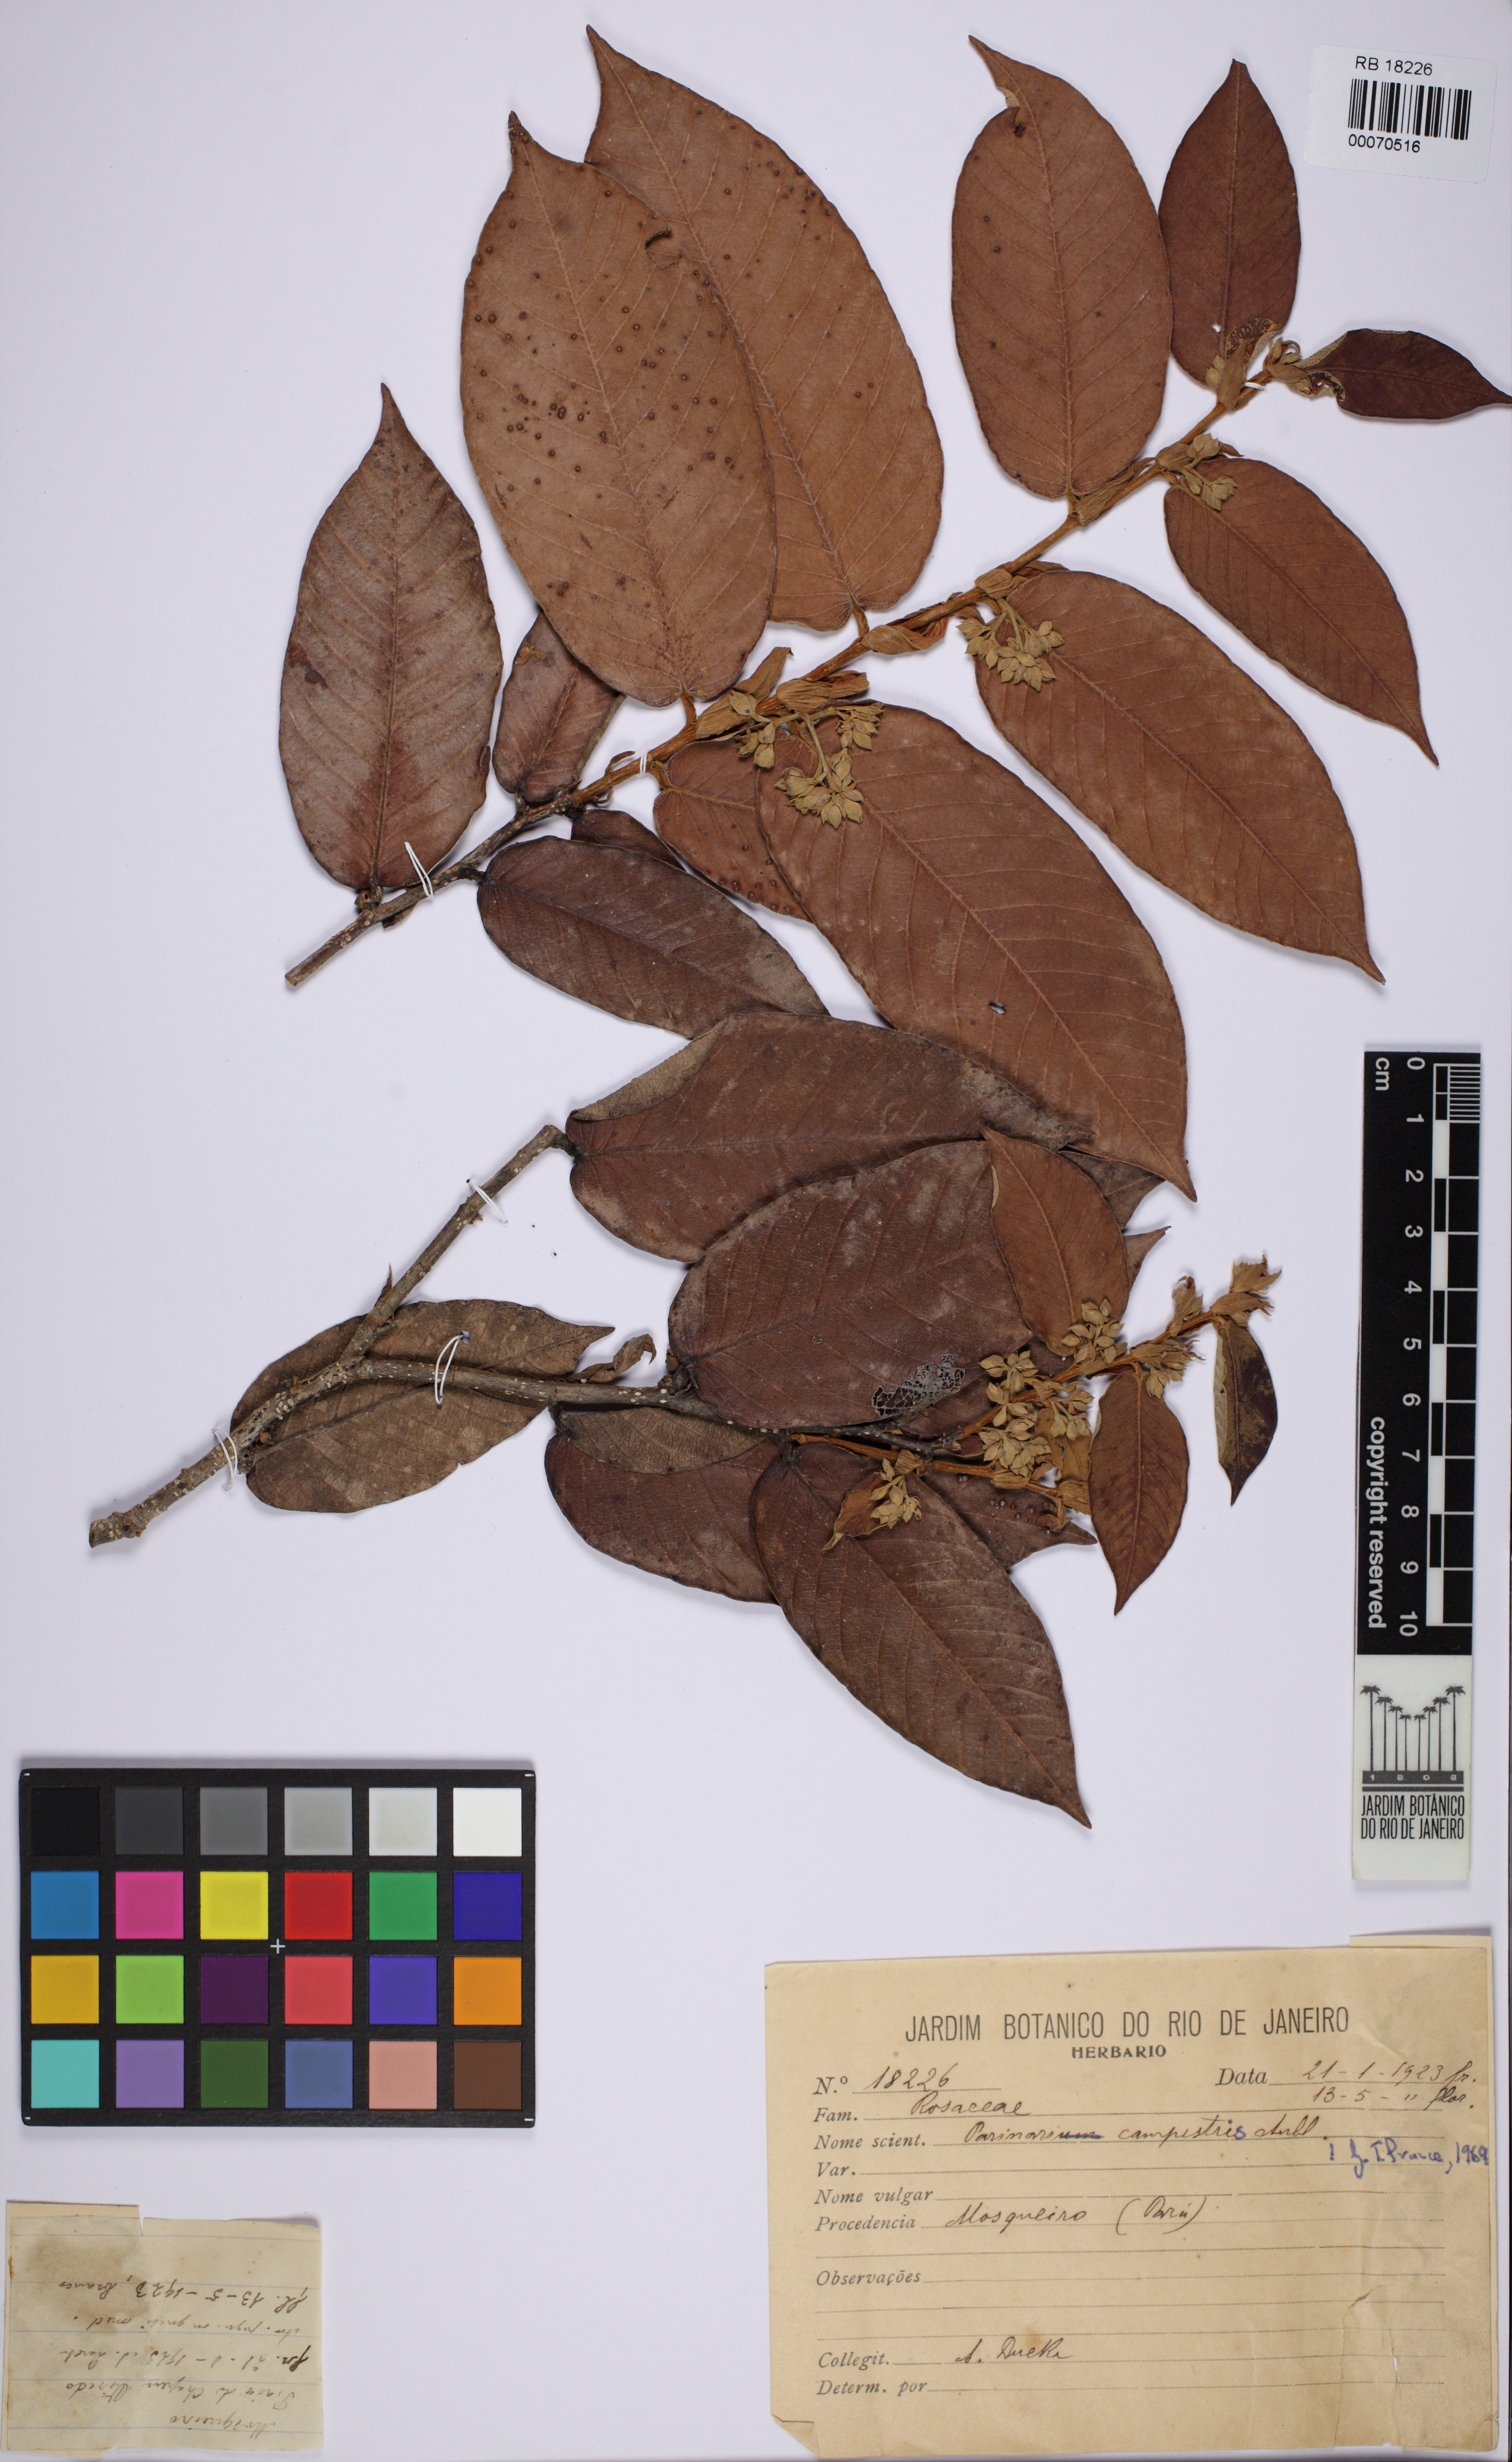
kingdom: Plantae
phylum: Tracheophyta
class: Magnoliopsida
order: Malpighiales
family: Chrysobalanaceae
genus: Parinari
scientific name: Parinari campestris
